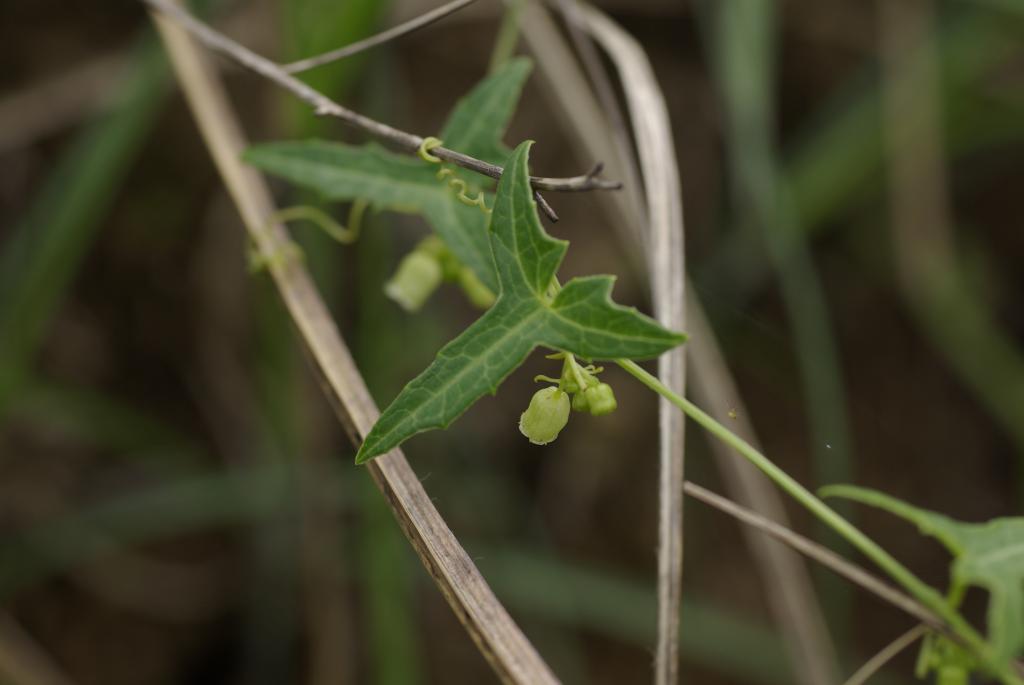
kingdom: Plantae
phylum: Tracheophyta
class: Magnoliopsida
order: Cucurbitales
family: Cucurbitaceae
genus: Solena
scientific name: Solena amplexicaulis
